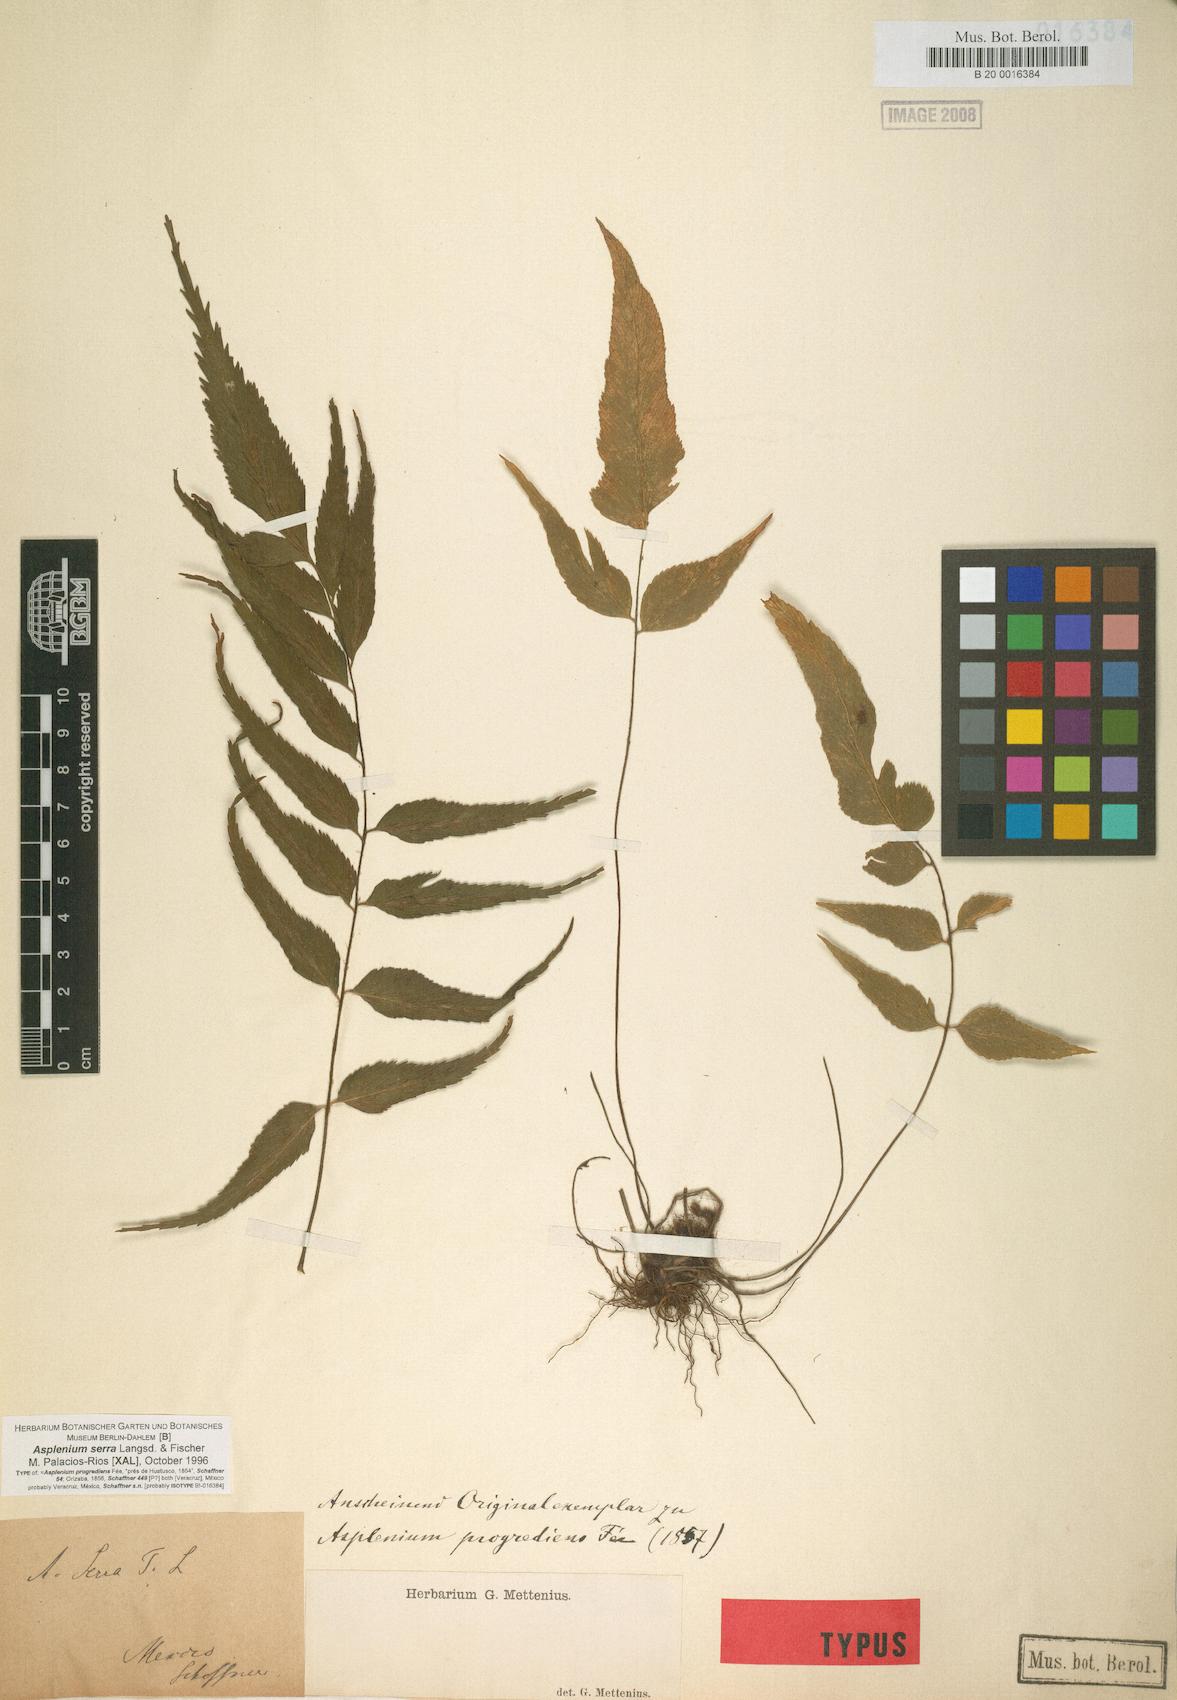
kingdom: Plantae
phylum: Tracheophyta
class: Polypodiopsida
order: Polypodiales
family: Aspleniaceae
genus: Asplenium
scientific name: Asplenium serra
